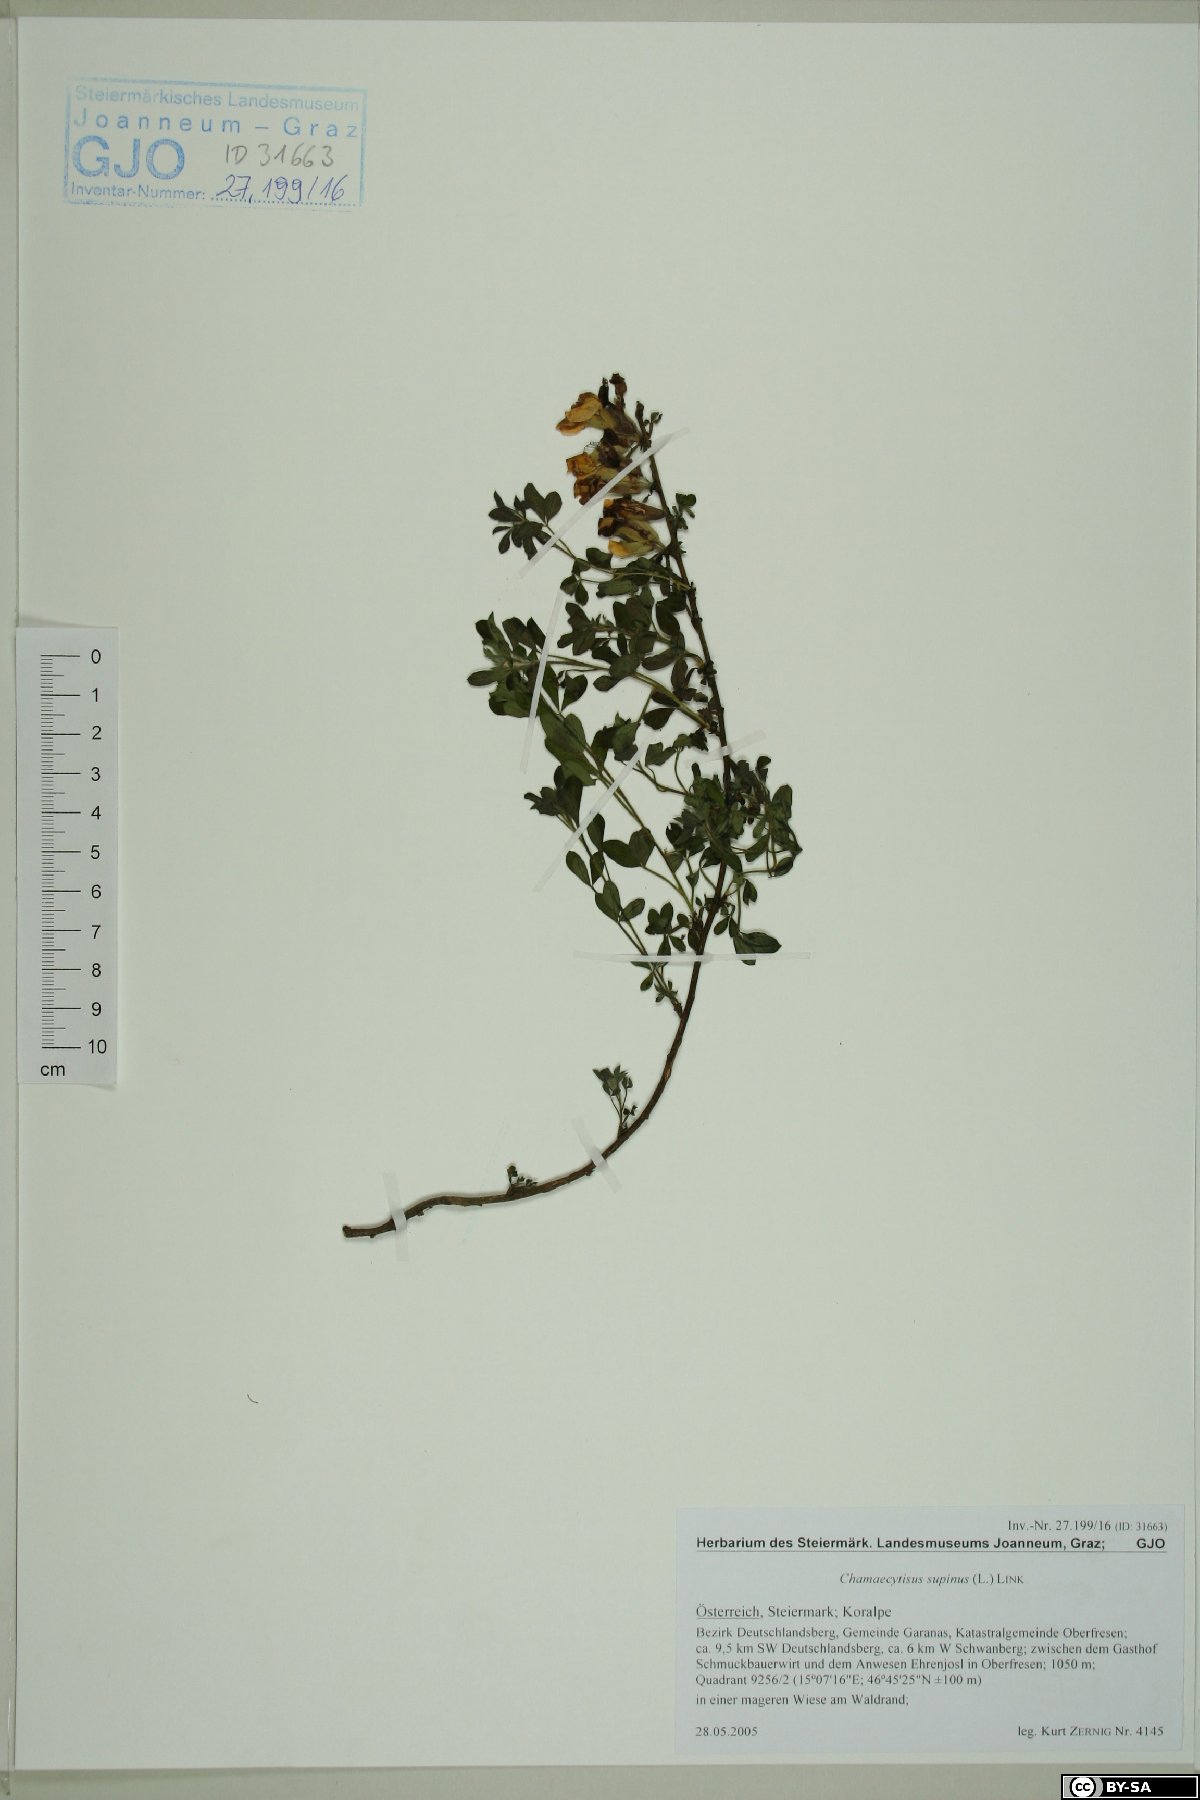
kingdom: Plantae
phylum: Tracheophyta
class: Magnoliopsida
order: Fabales
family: Fabaceae
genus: Chamaecytisus
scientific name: Chamaecytisus supinus
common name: Clustered broom
